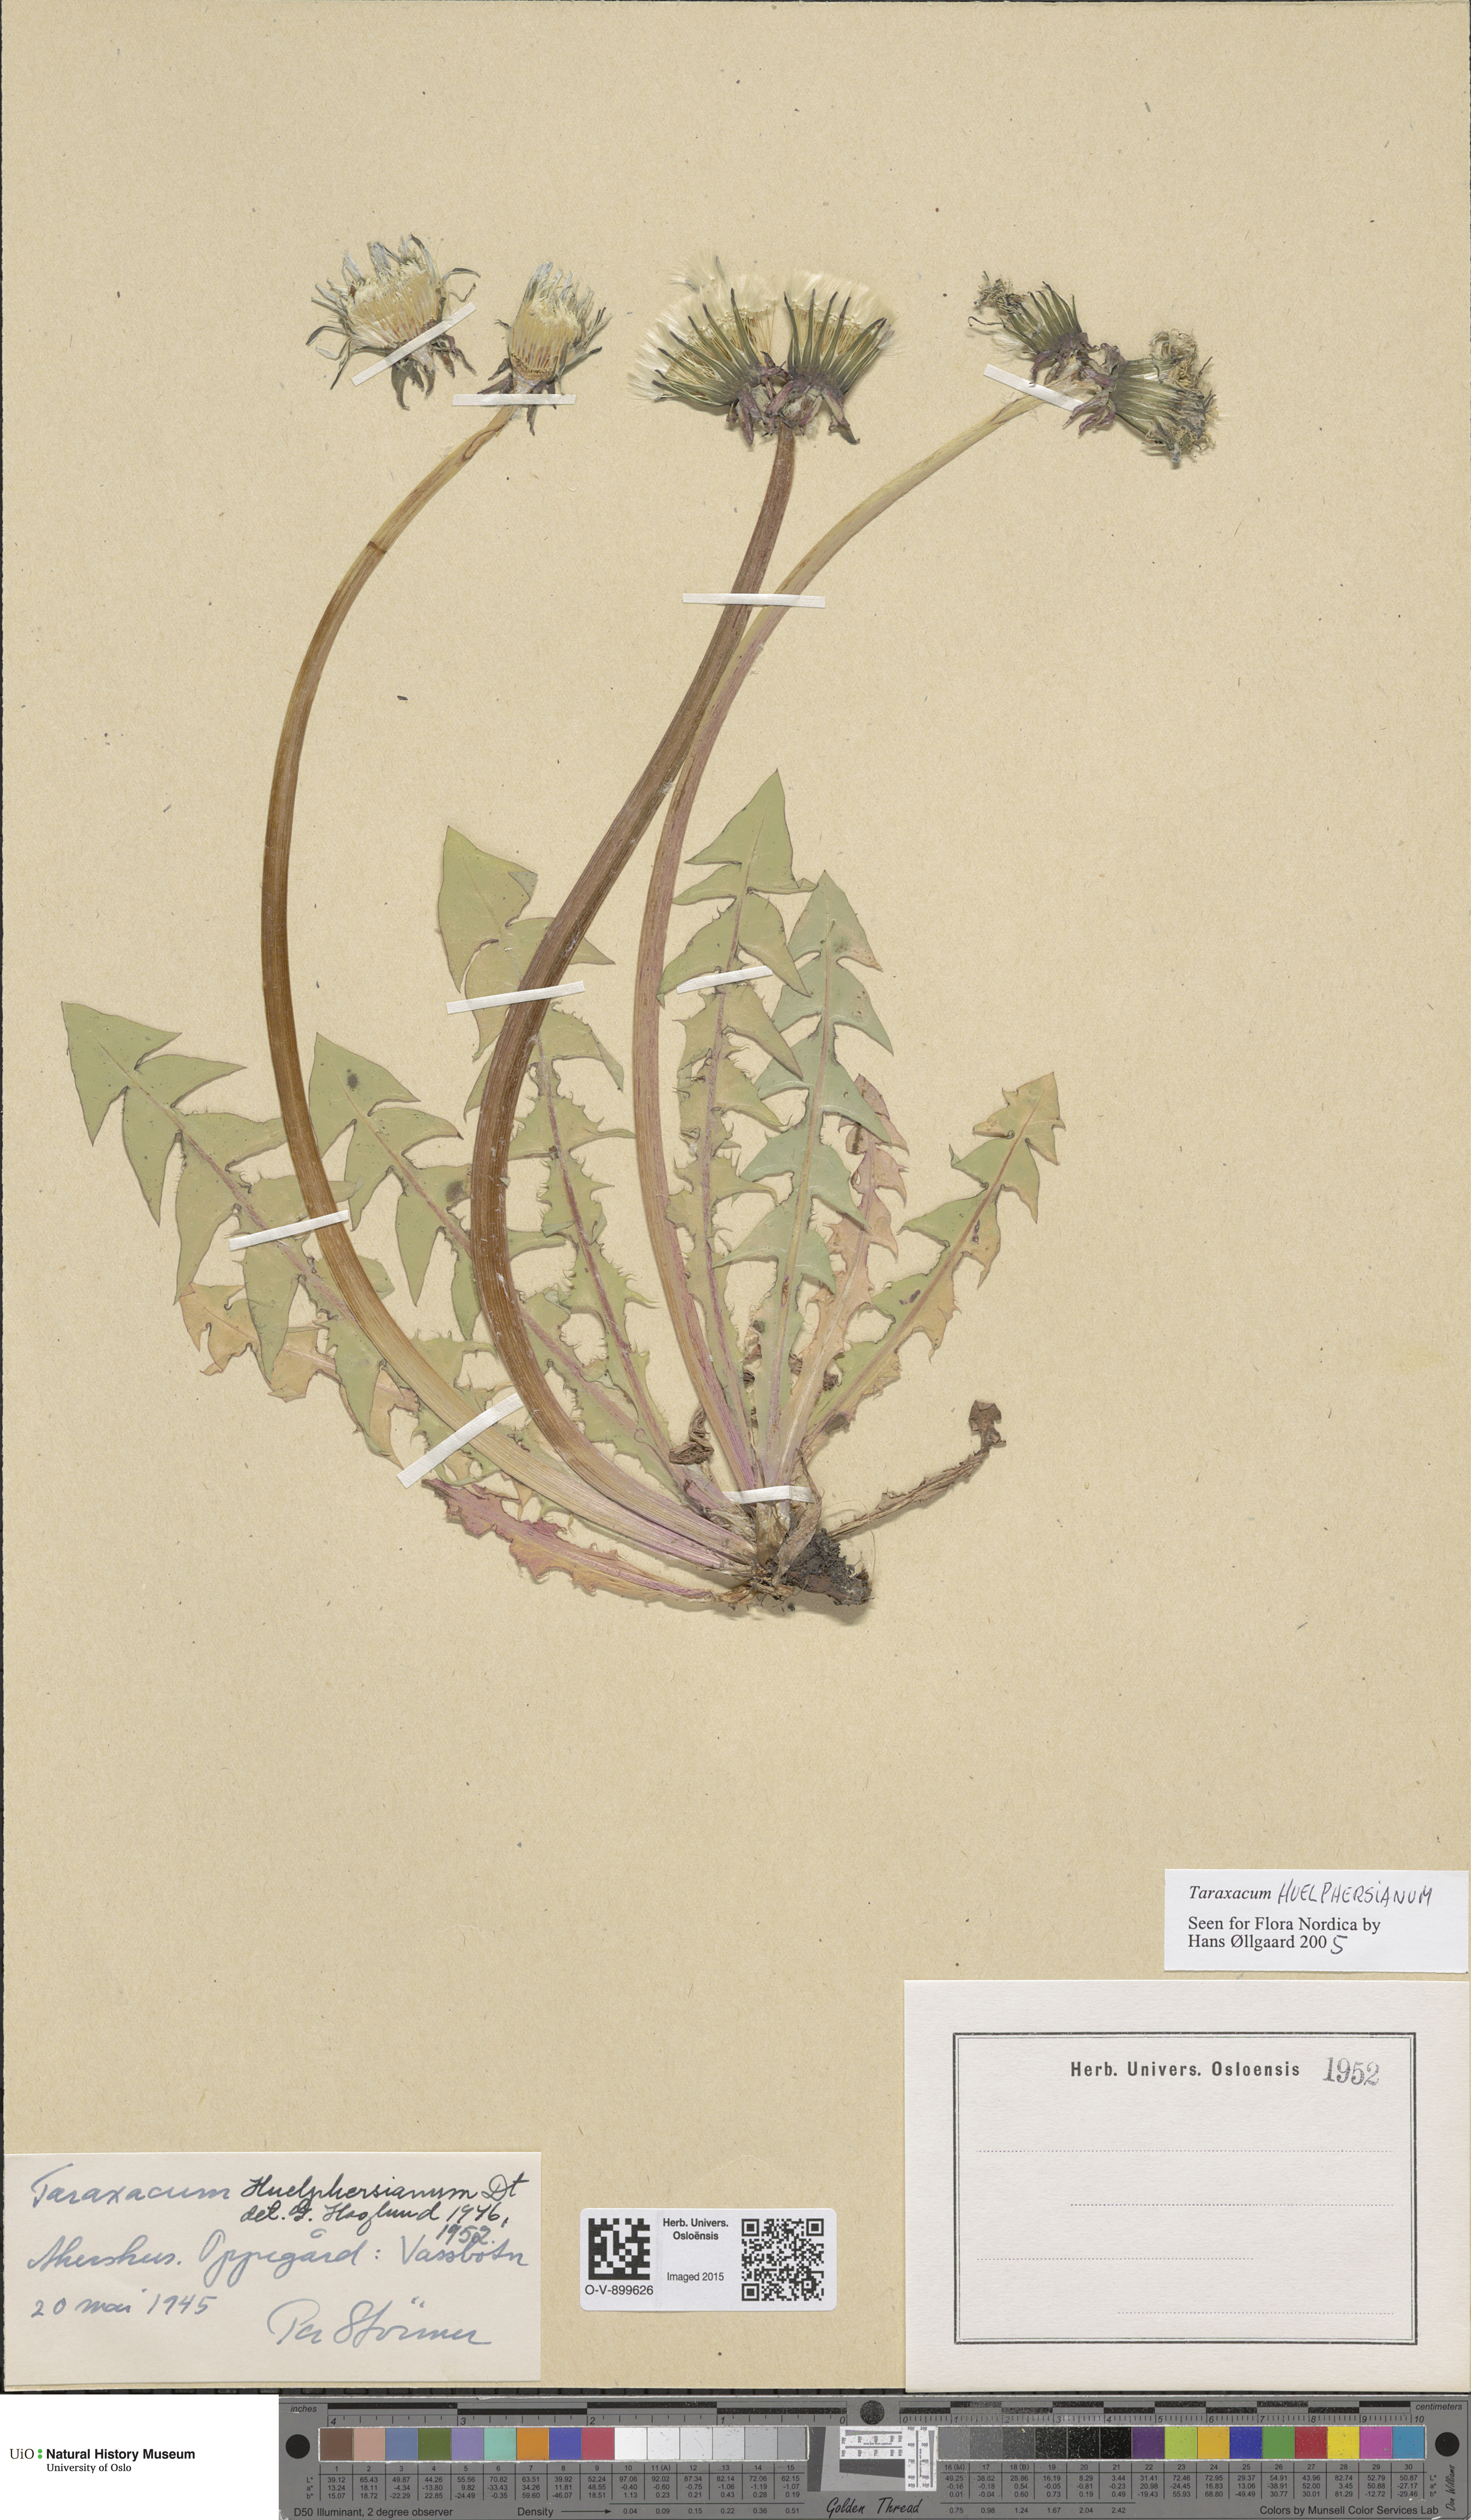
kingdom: Plantae
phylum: Tracheophyta
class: Magnoliopsida
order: Asterales
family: Asteraceae
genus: Taraxacum
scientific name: Taraxacum huelphersianum
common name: Hülphers's dandelion
